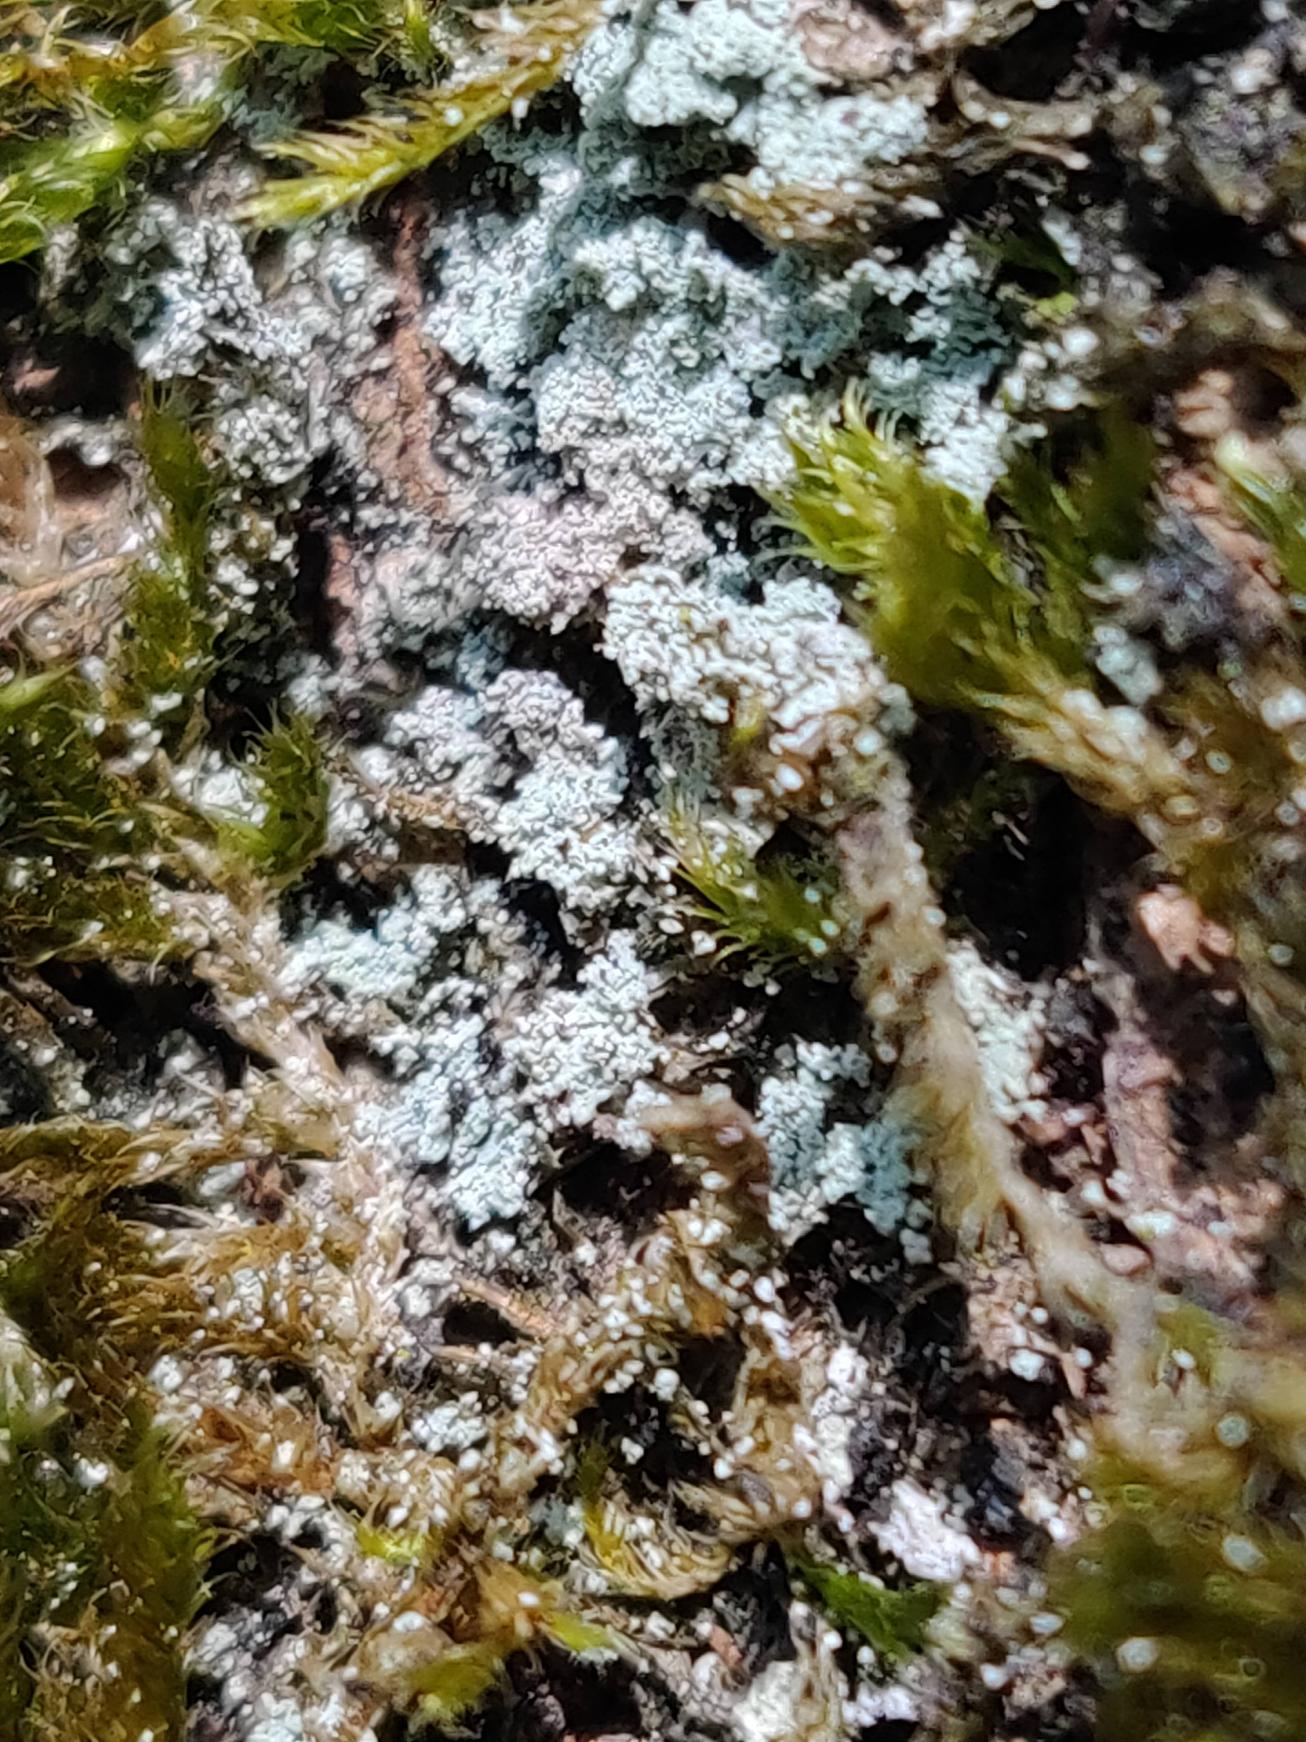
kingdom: Fungi
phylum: Ascomycota
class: Lecanoromycetes
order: Lecanorales
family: Stereocaulaceae
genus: Lepraria
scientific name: Lepraria
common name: Støvlav
